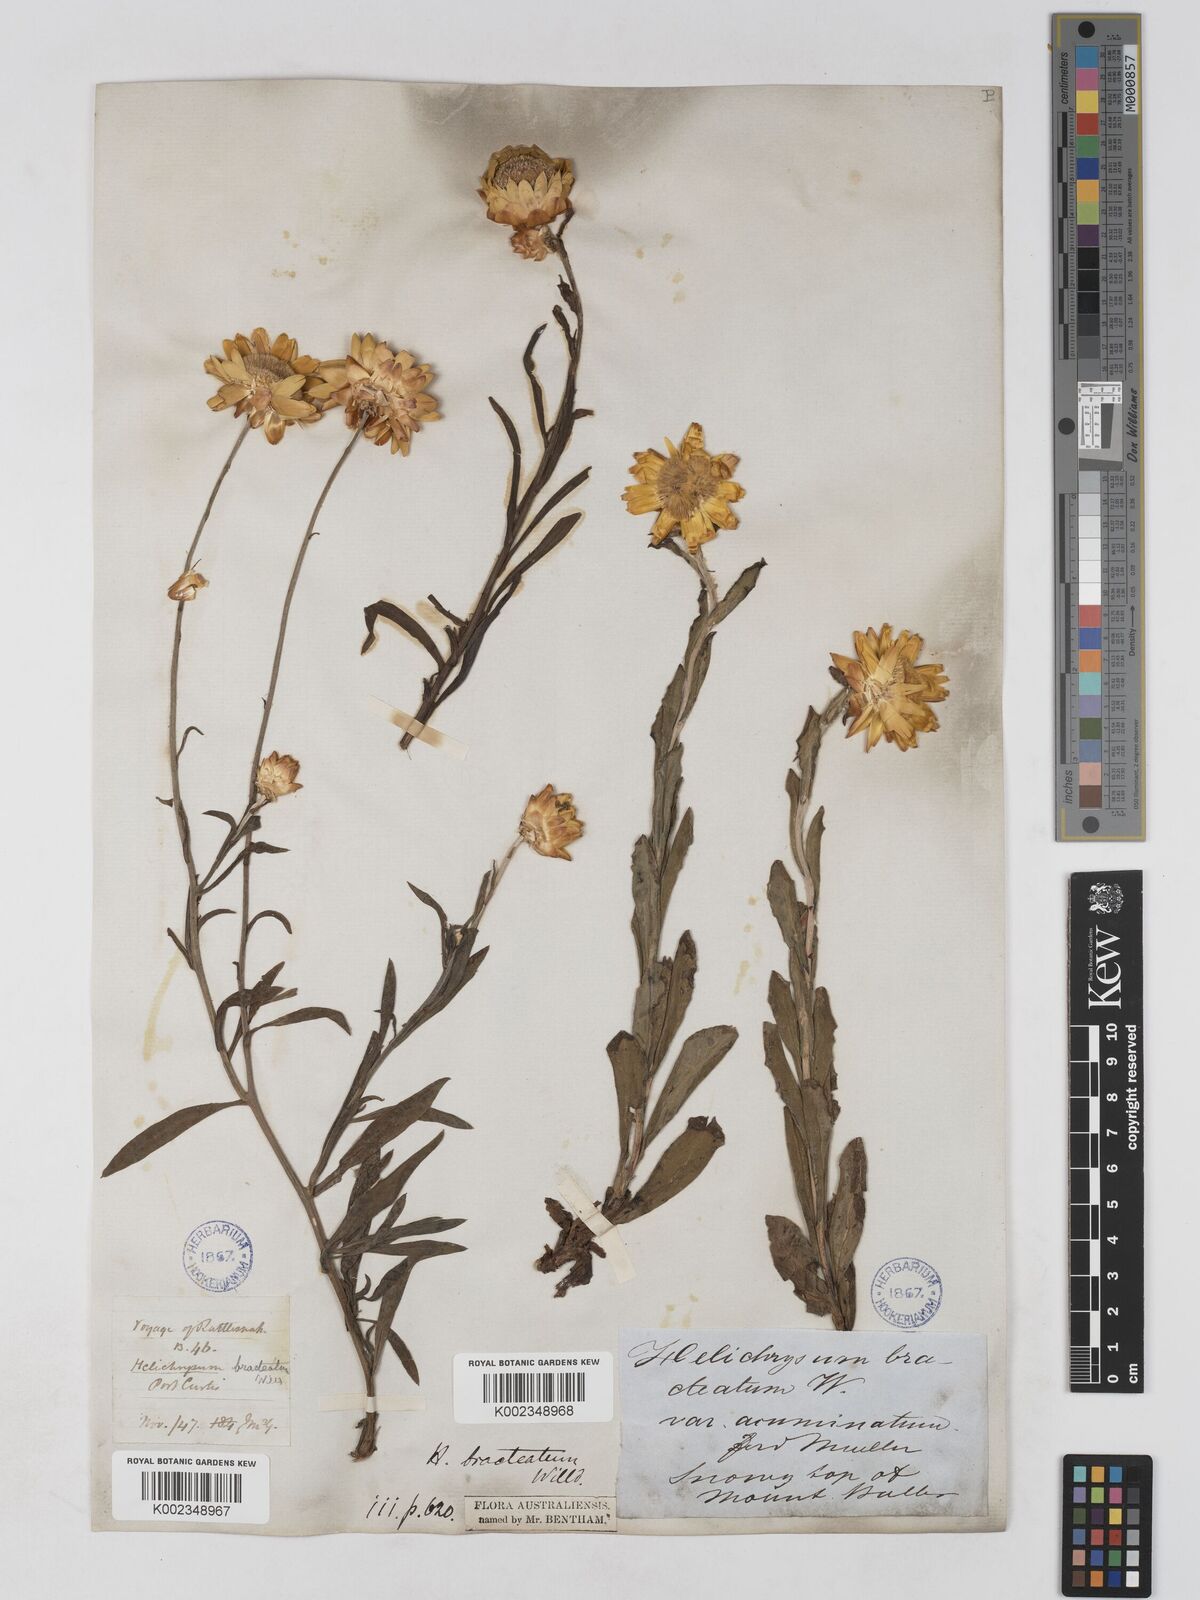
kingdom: Plantae
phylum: Tracheophyta
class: Magnoliopsida
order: Asterales
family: Asteraceae
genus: Xerochrysum
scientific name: Xerochrysum bracteatum
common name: Bracted strawflower
